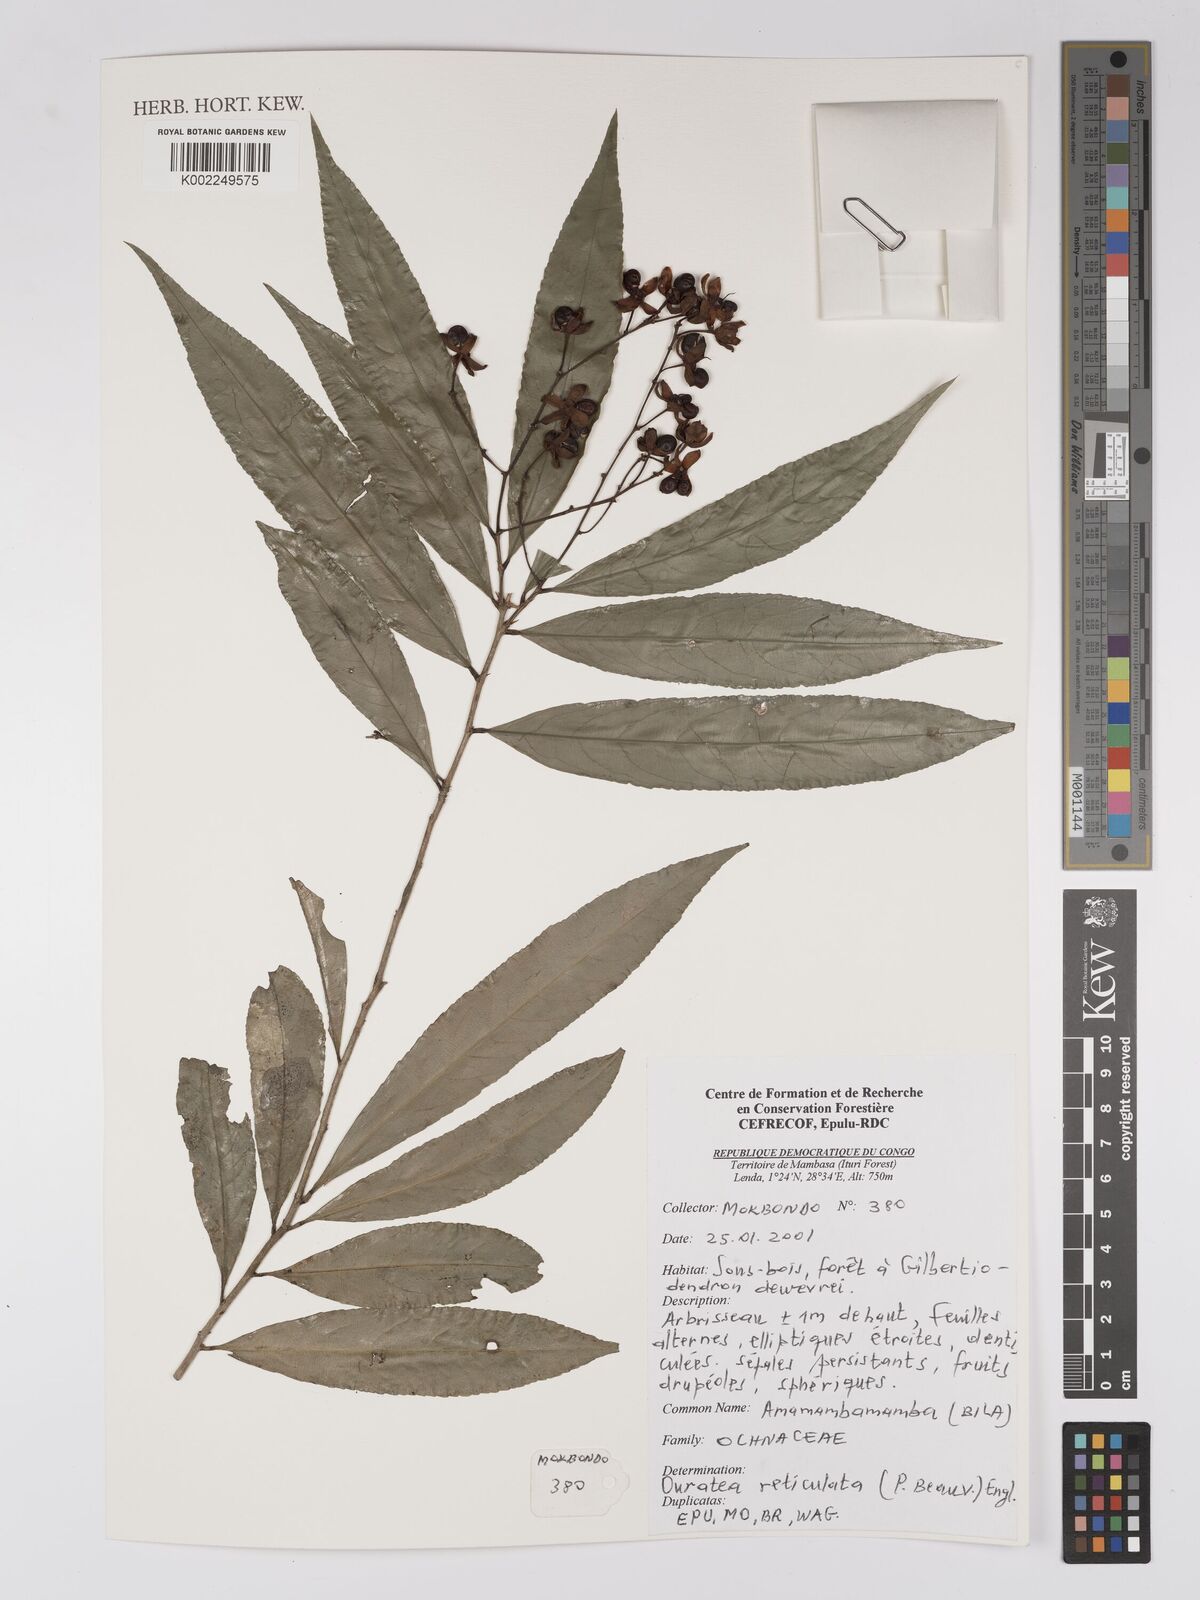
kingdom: Plantae
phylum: Tracheophyta
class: Magnoliopsida
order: Malpighiales
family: Ochnaceae
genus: Campylospermum
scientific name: Campylospermum reticulatum
